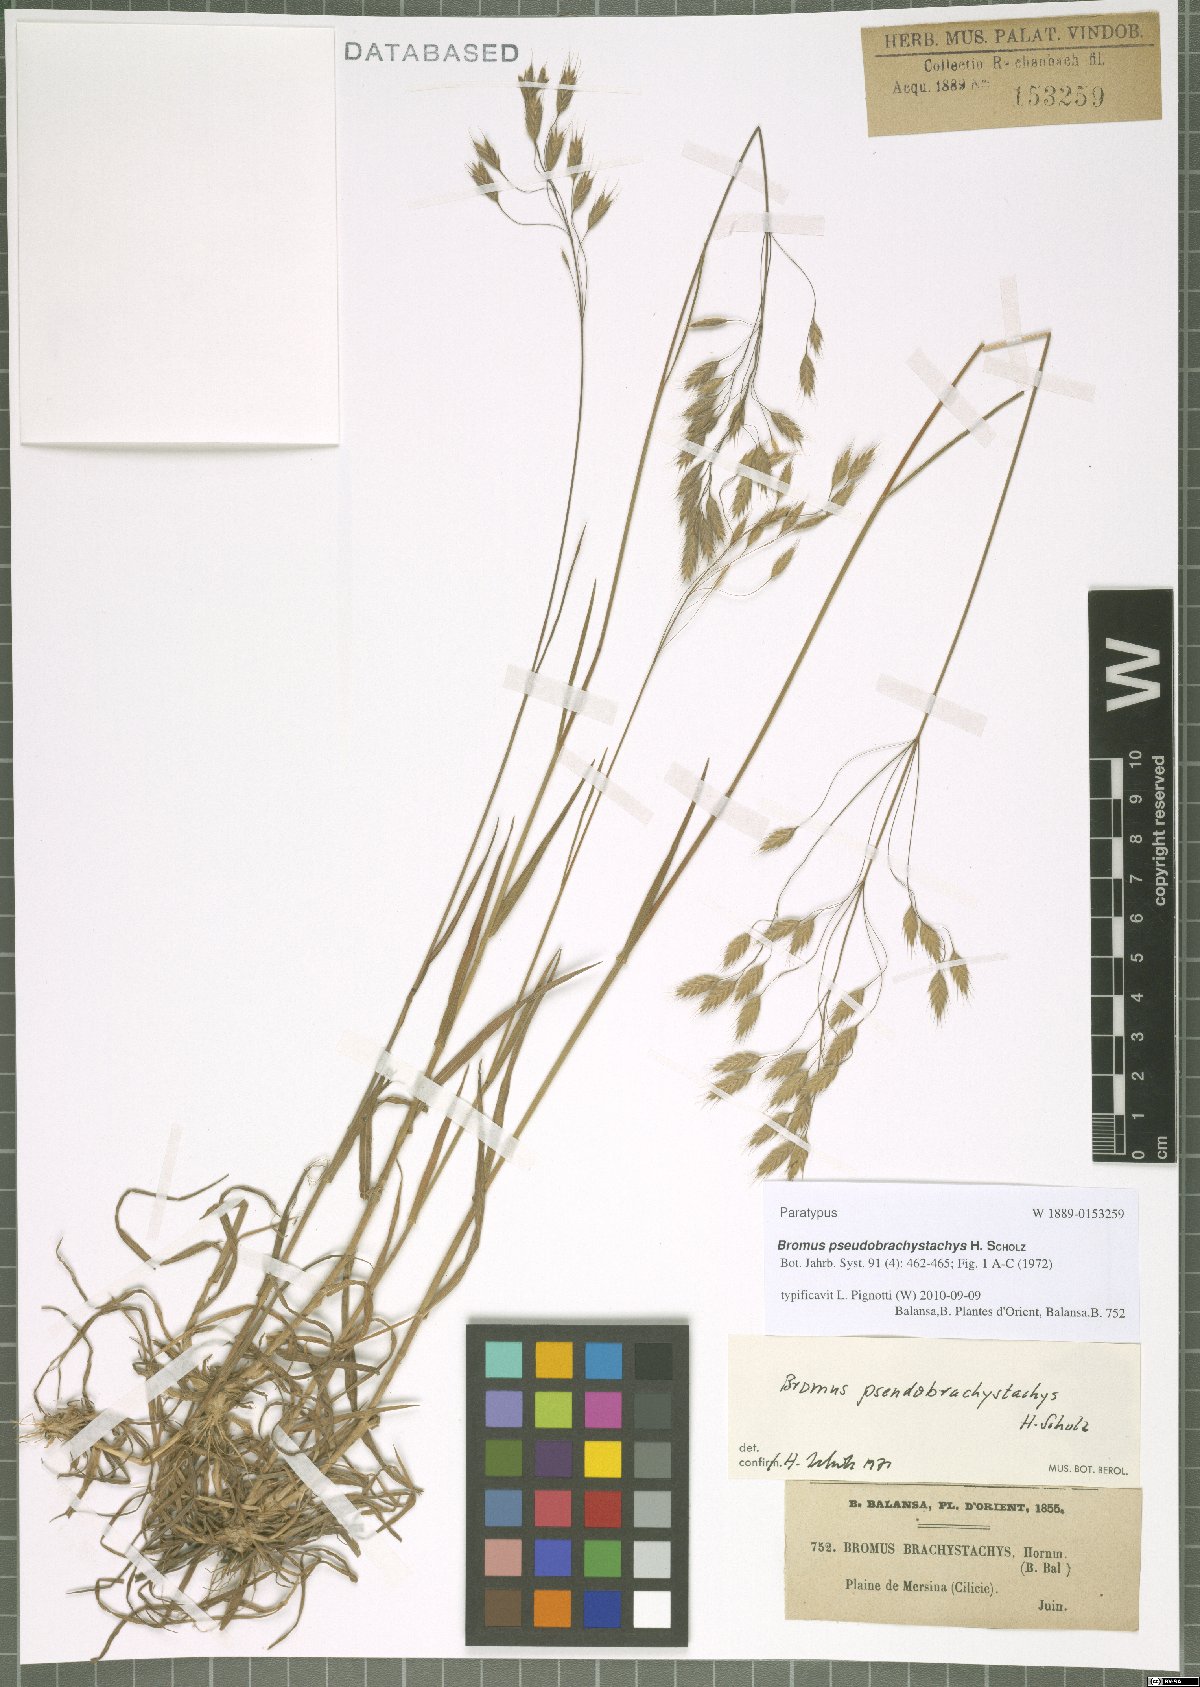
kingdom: Plantae
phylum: Tracheophyta
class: Liliopsida
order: Poales
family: Poaceae
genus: Bromus
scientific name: Bromus pseudobrachystachys
